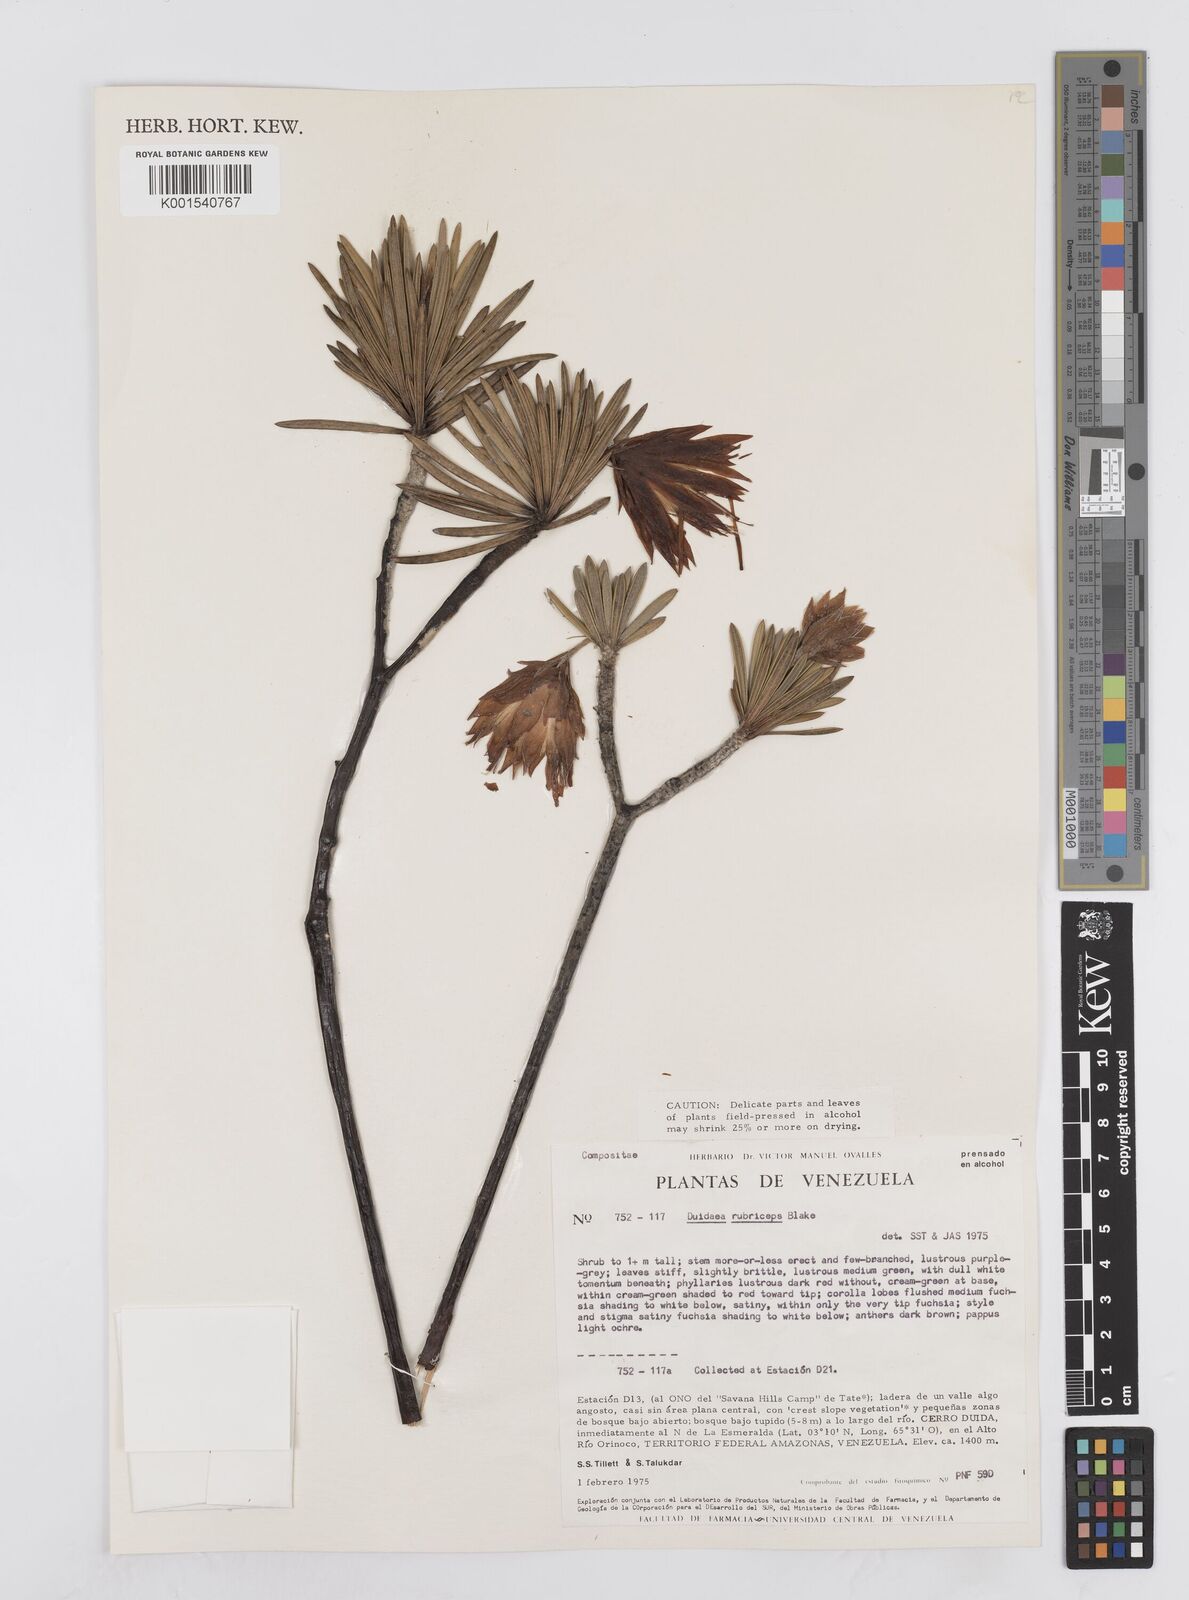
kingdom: Plantae
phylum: Tracheophyta
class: Magnoliopsida
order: Asterales
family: Asteraceae
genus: Duidaea
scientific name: Duidaea tatei
